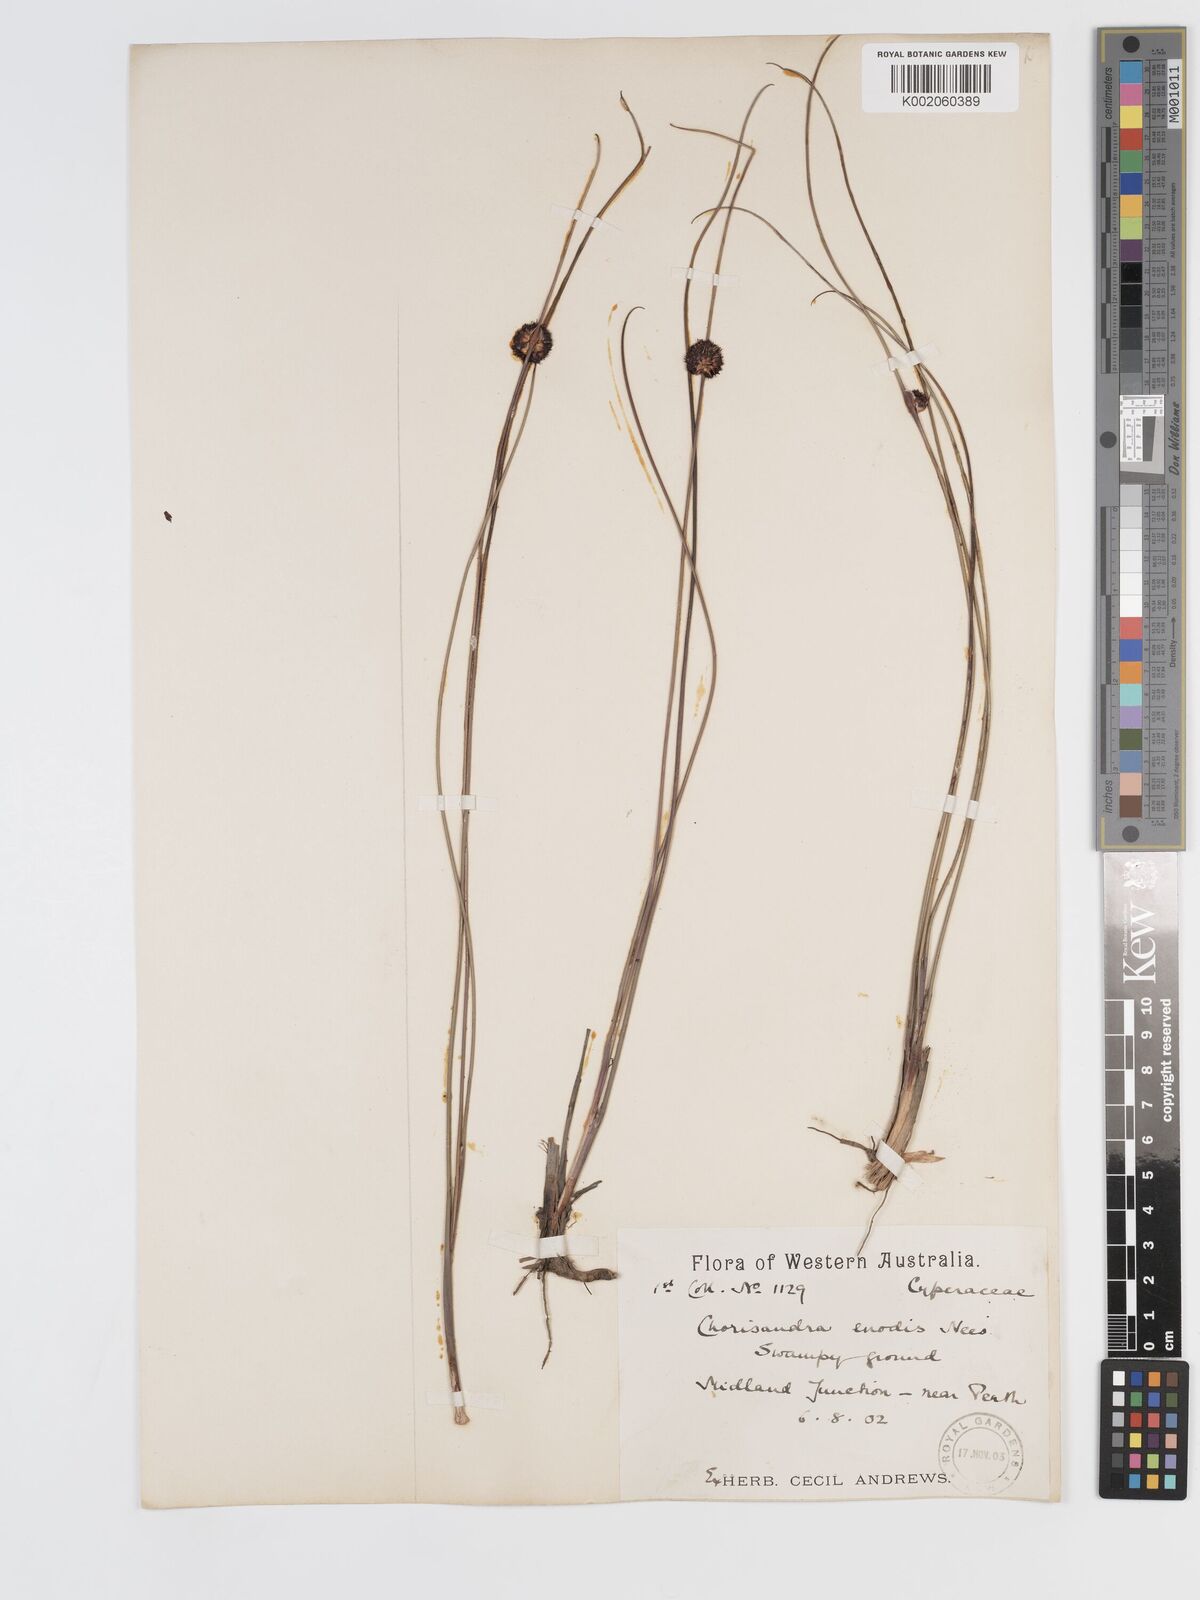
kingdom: Plantae
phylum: Tracheophyta
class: Liliopsida
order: Poales
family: Cyperaceae
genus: Chorizandra
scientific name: Chorizandra enodis
